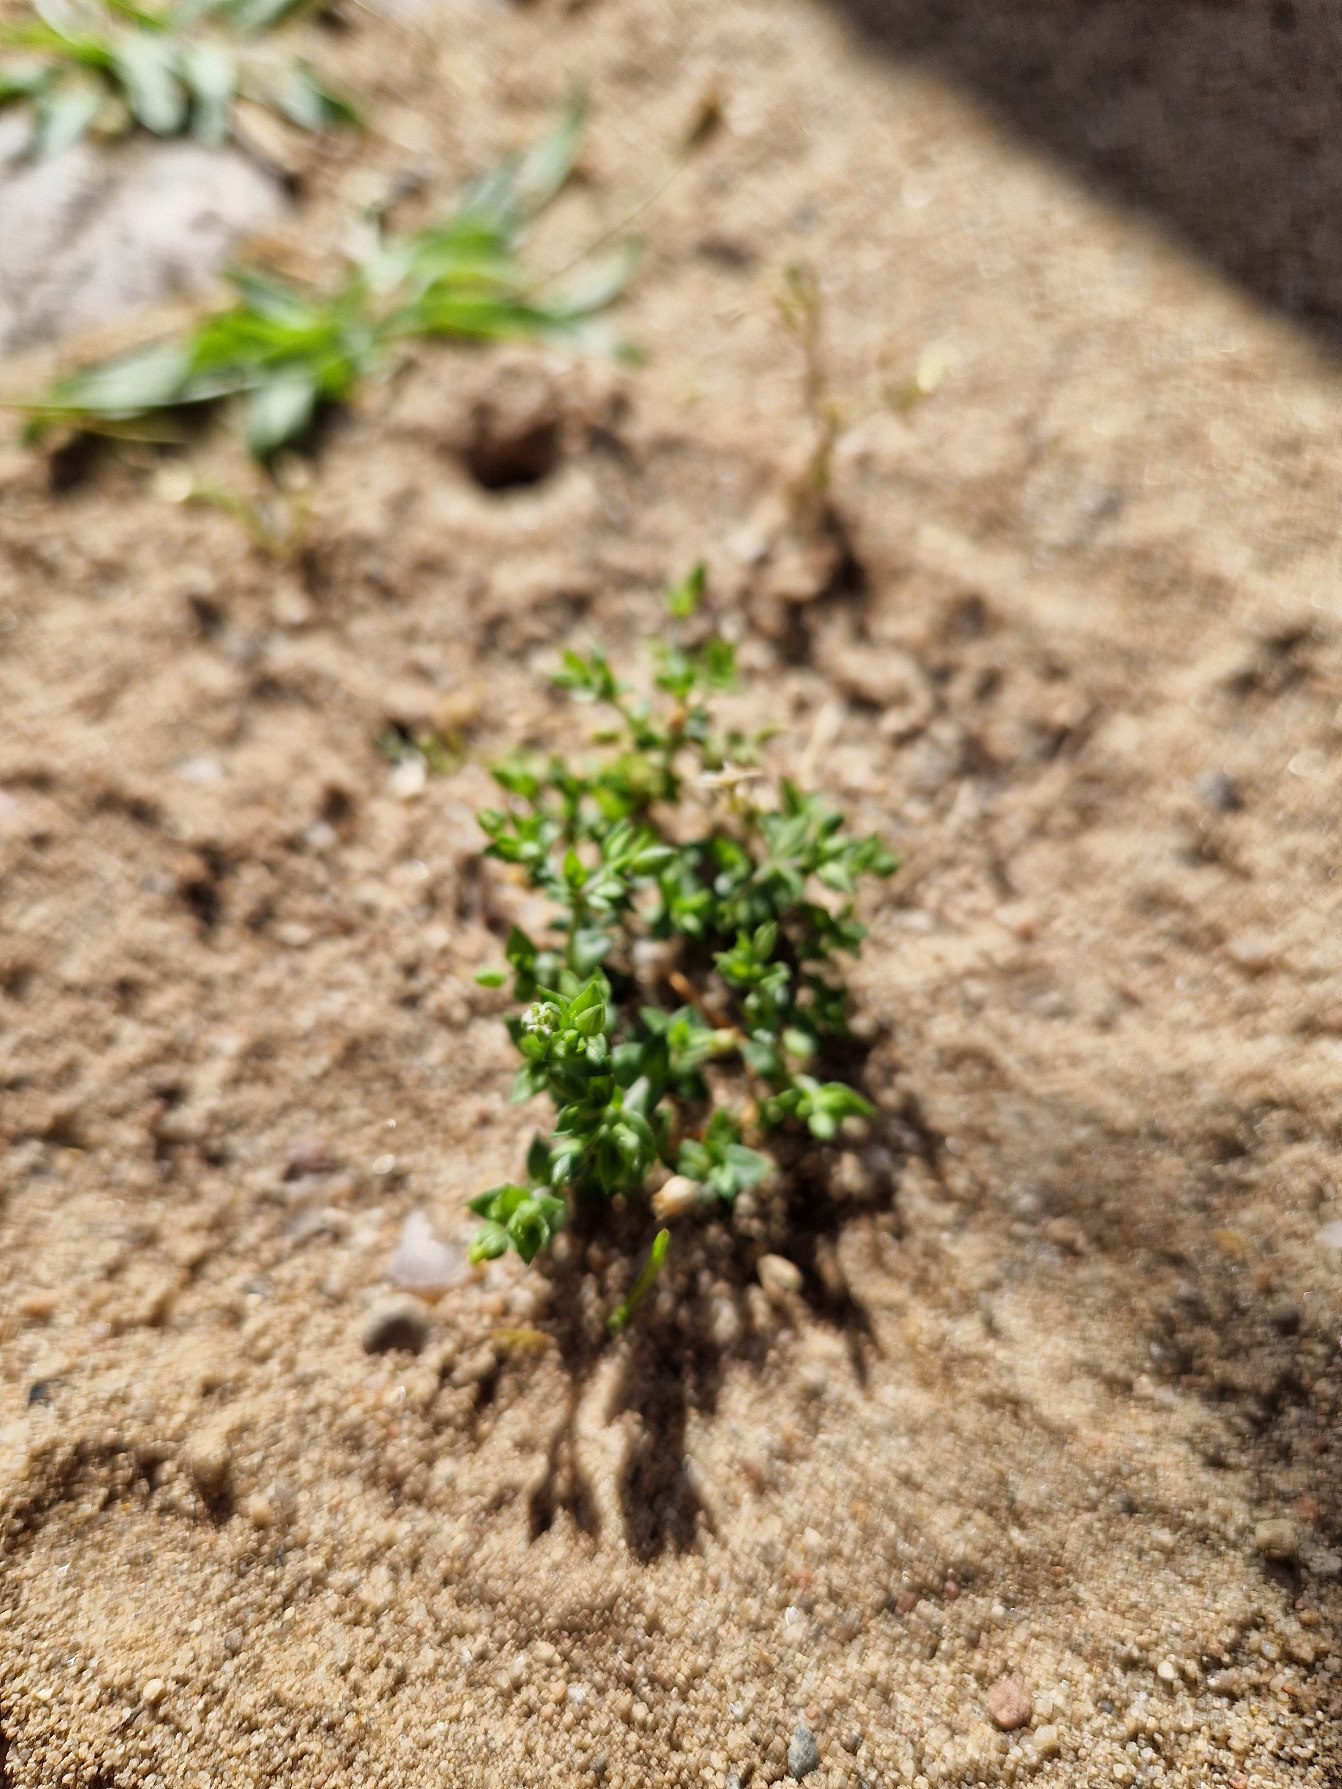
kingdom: Plantae
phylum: Tracheophyta
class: Magnoliopsida
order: Caryophyllales
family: Caryophyllaceae
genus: Arenaria
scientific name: Arenaria serpyllifolia
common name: Almindelig markarve
